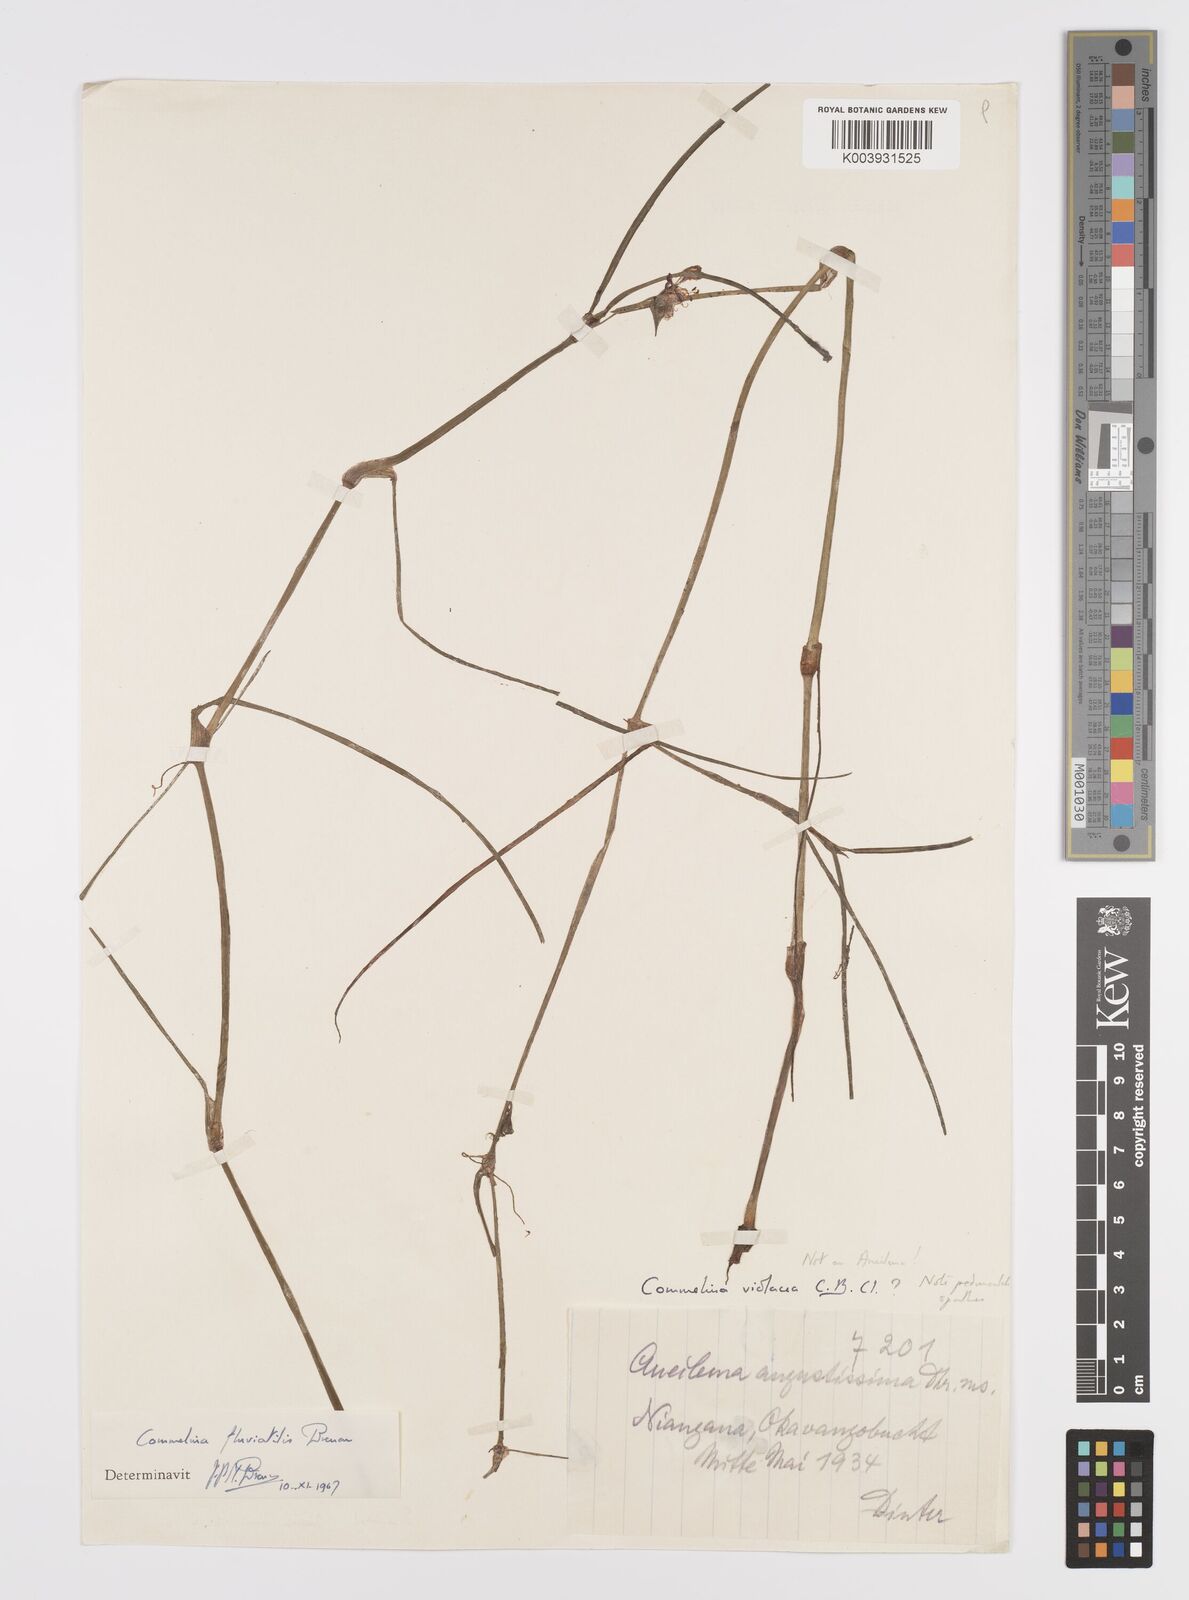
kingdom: Plantae
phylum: Tracheophyta
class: Liliopsida
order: Commelinales
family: Commelinaceae
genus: Commelina
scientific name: Commelina fluviatilis
